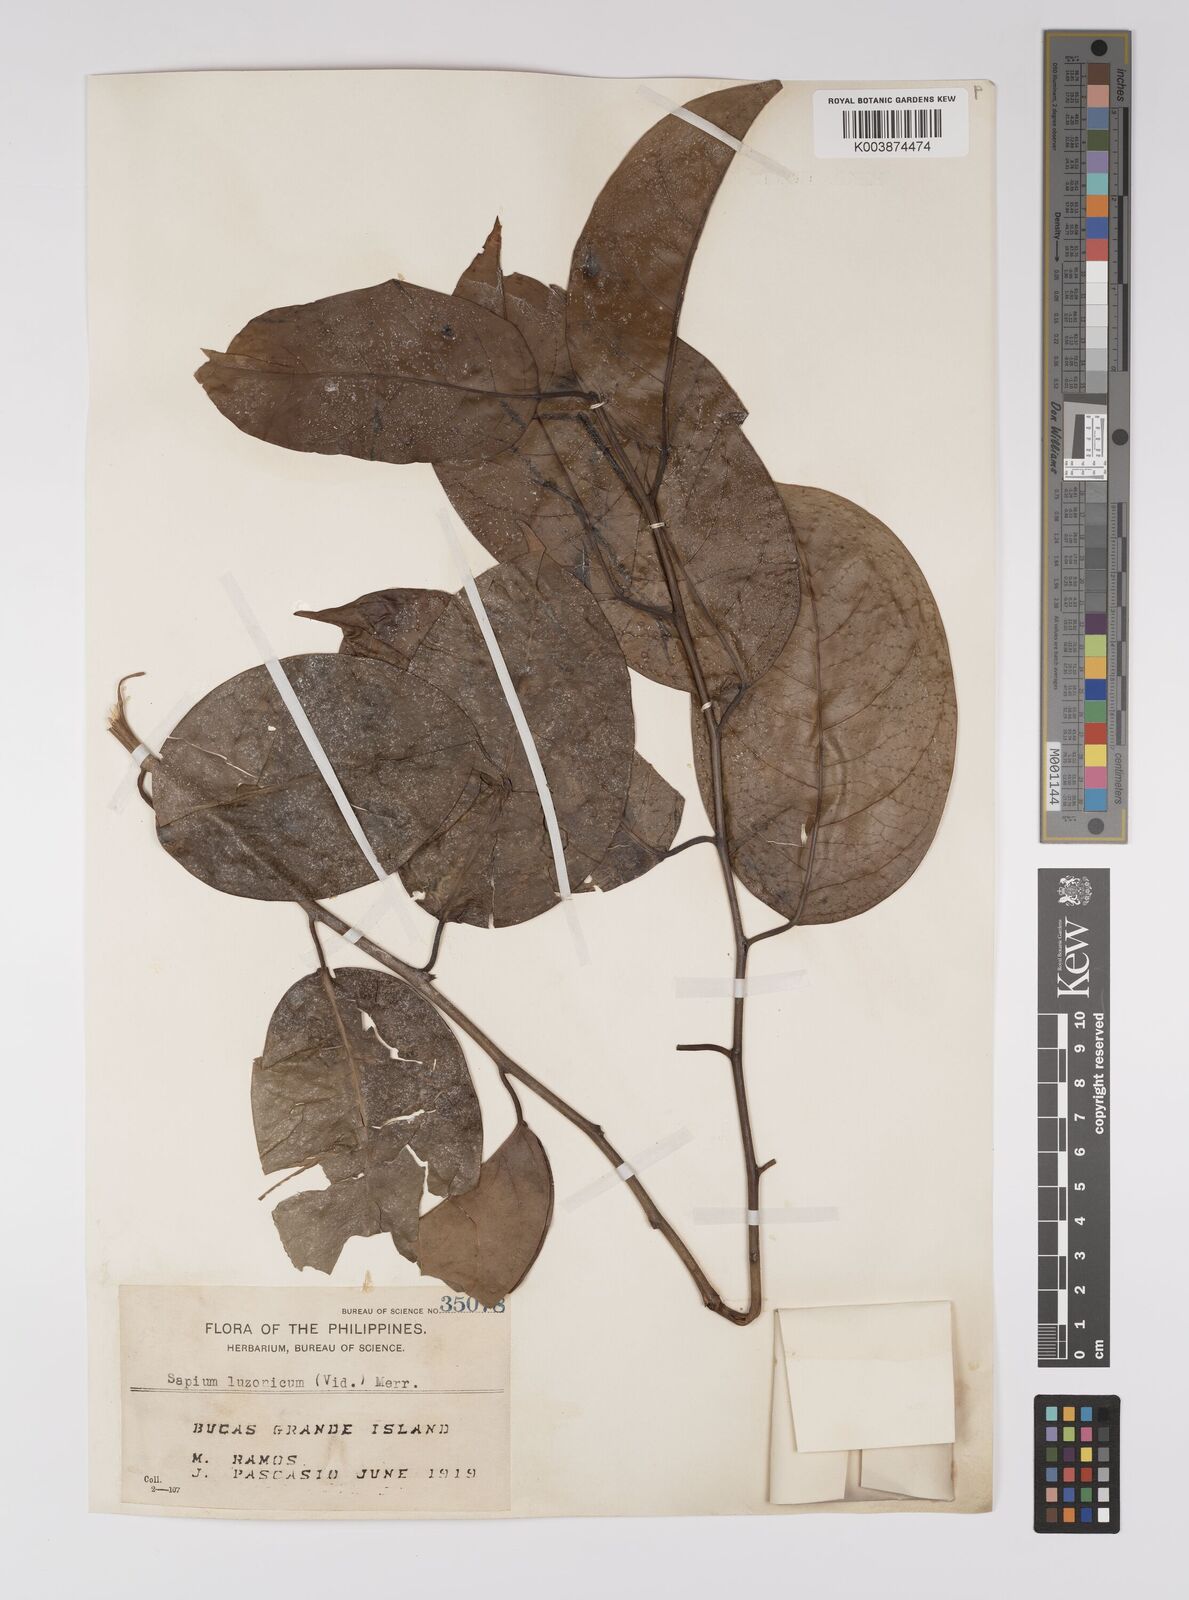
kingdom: Plantae
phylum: Tracheophyta
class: Magnoliopsida
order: Malpighiales
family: Euphorbiaceae
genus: Balakata
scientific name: Balakata luzonica
